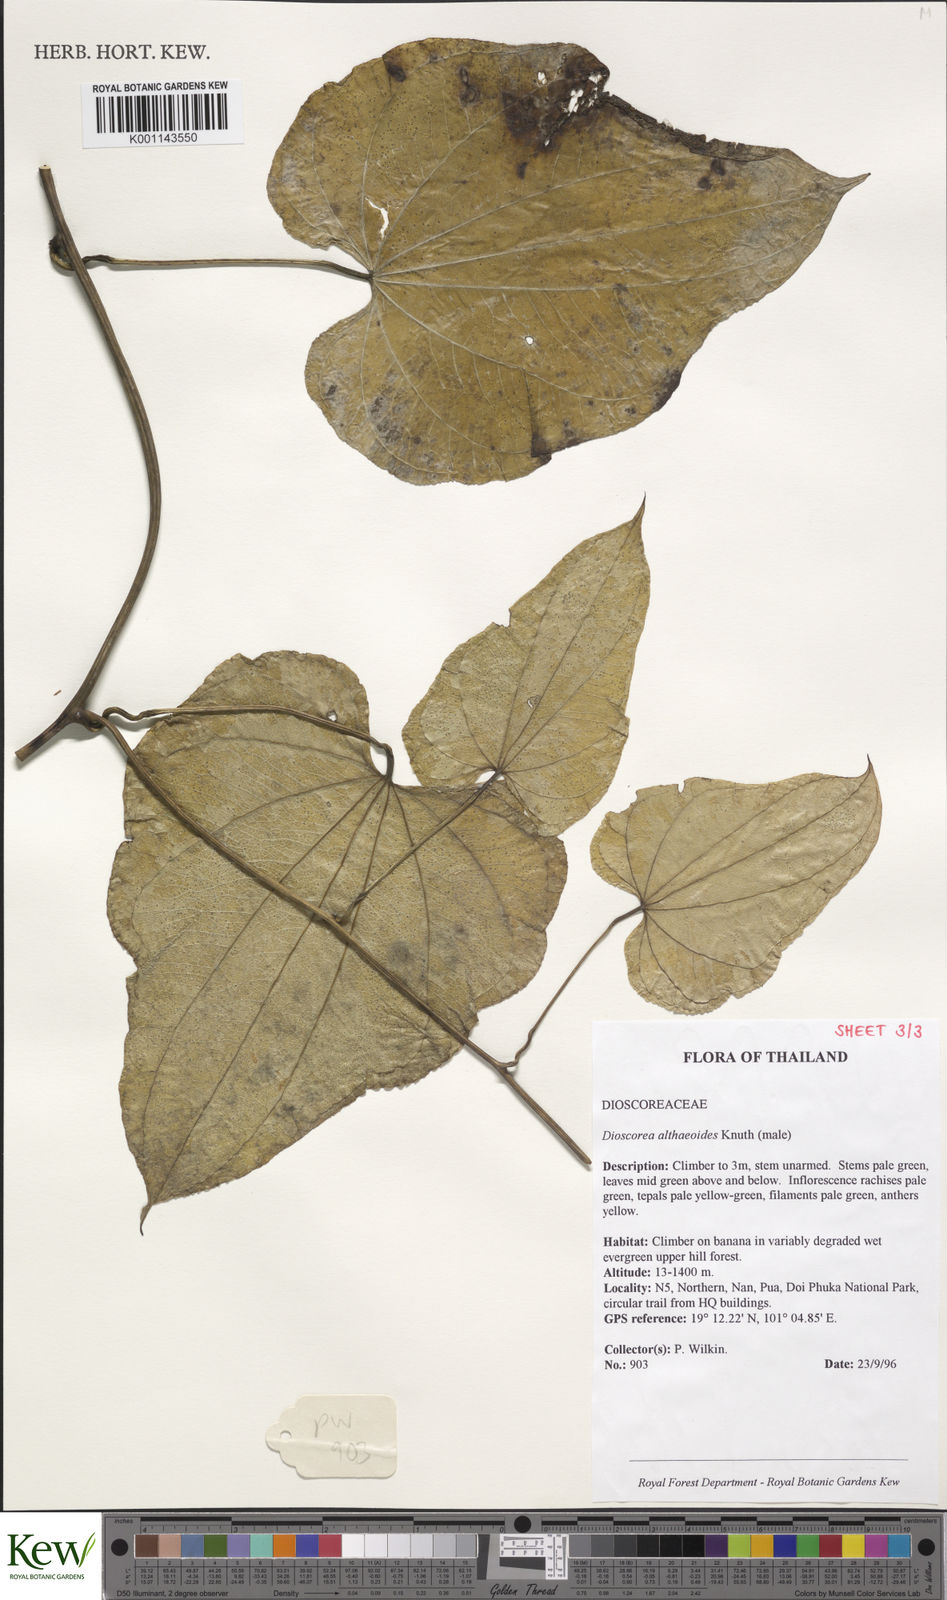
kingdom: Plantae
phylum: Tracheophyta
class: Liliopsida
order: Dioscoreales
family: Dioscoreaceae
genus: Dioscorea
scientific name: Dioscorea rockii
